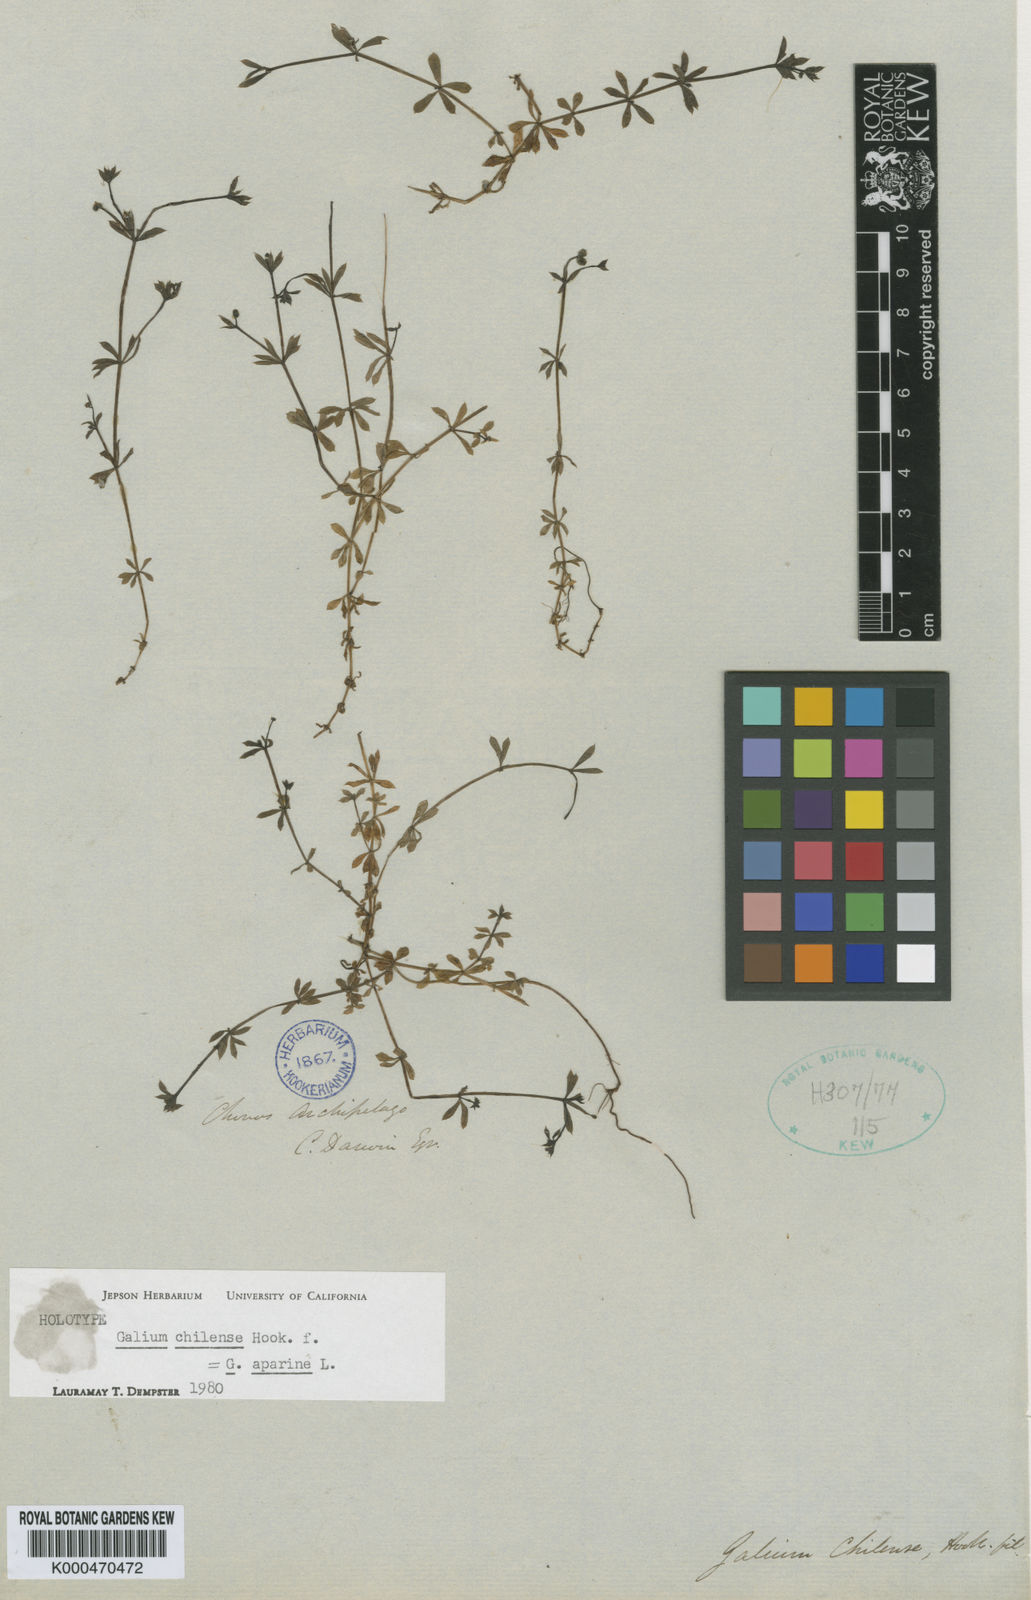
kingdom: Plantae
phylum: Tracheophyta
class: Magnoliopsida
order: Gentianales
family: Rubiaceae
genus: Galium
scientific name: Galium aparine
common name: Cleavers
